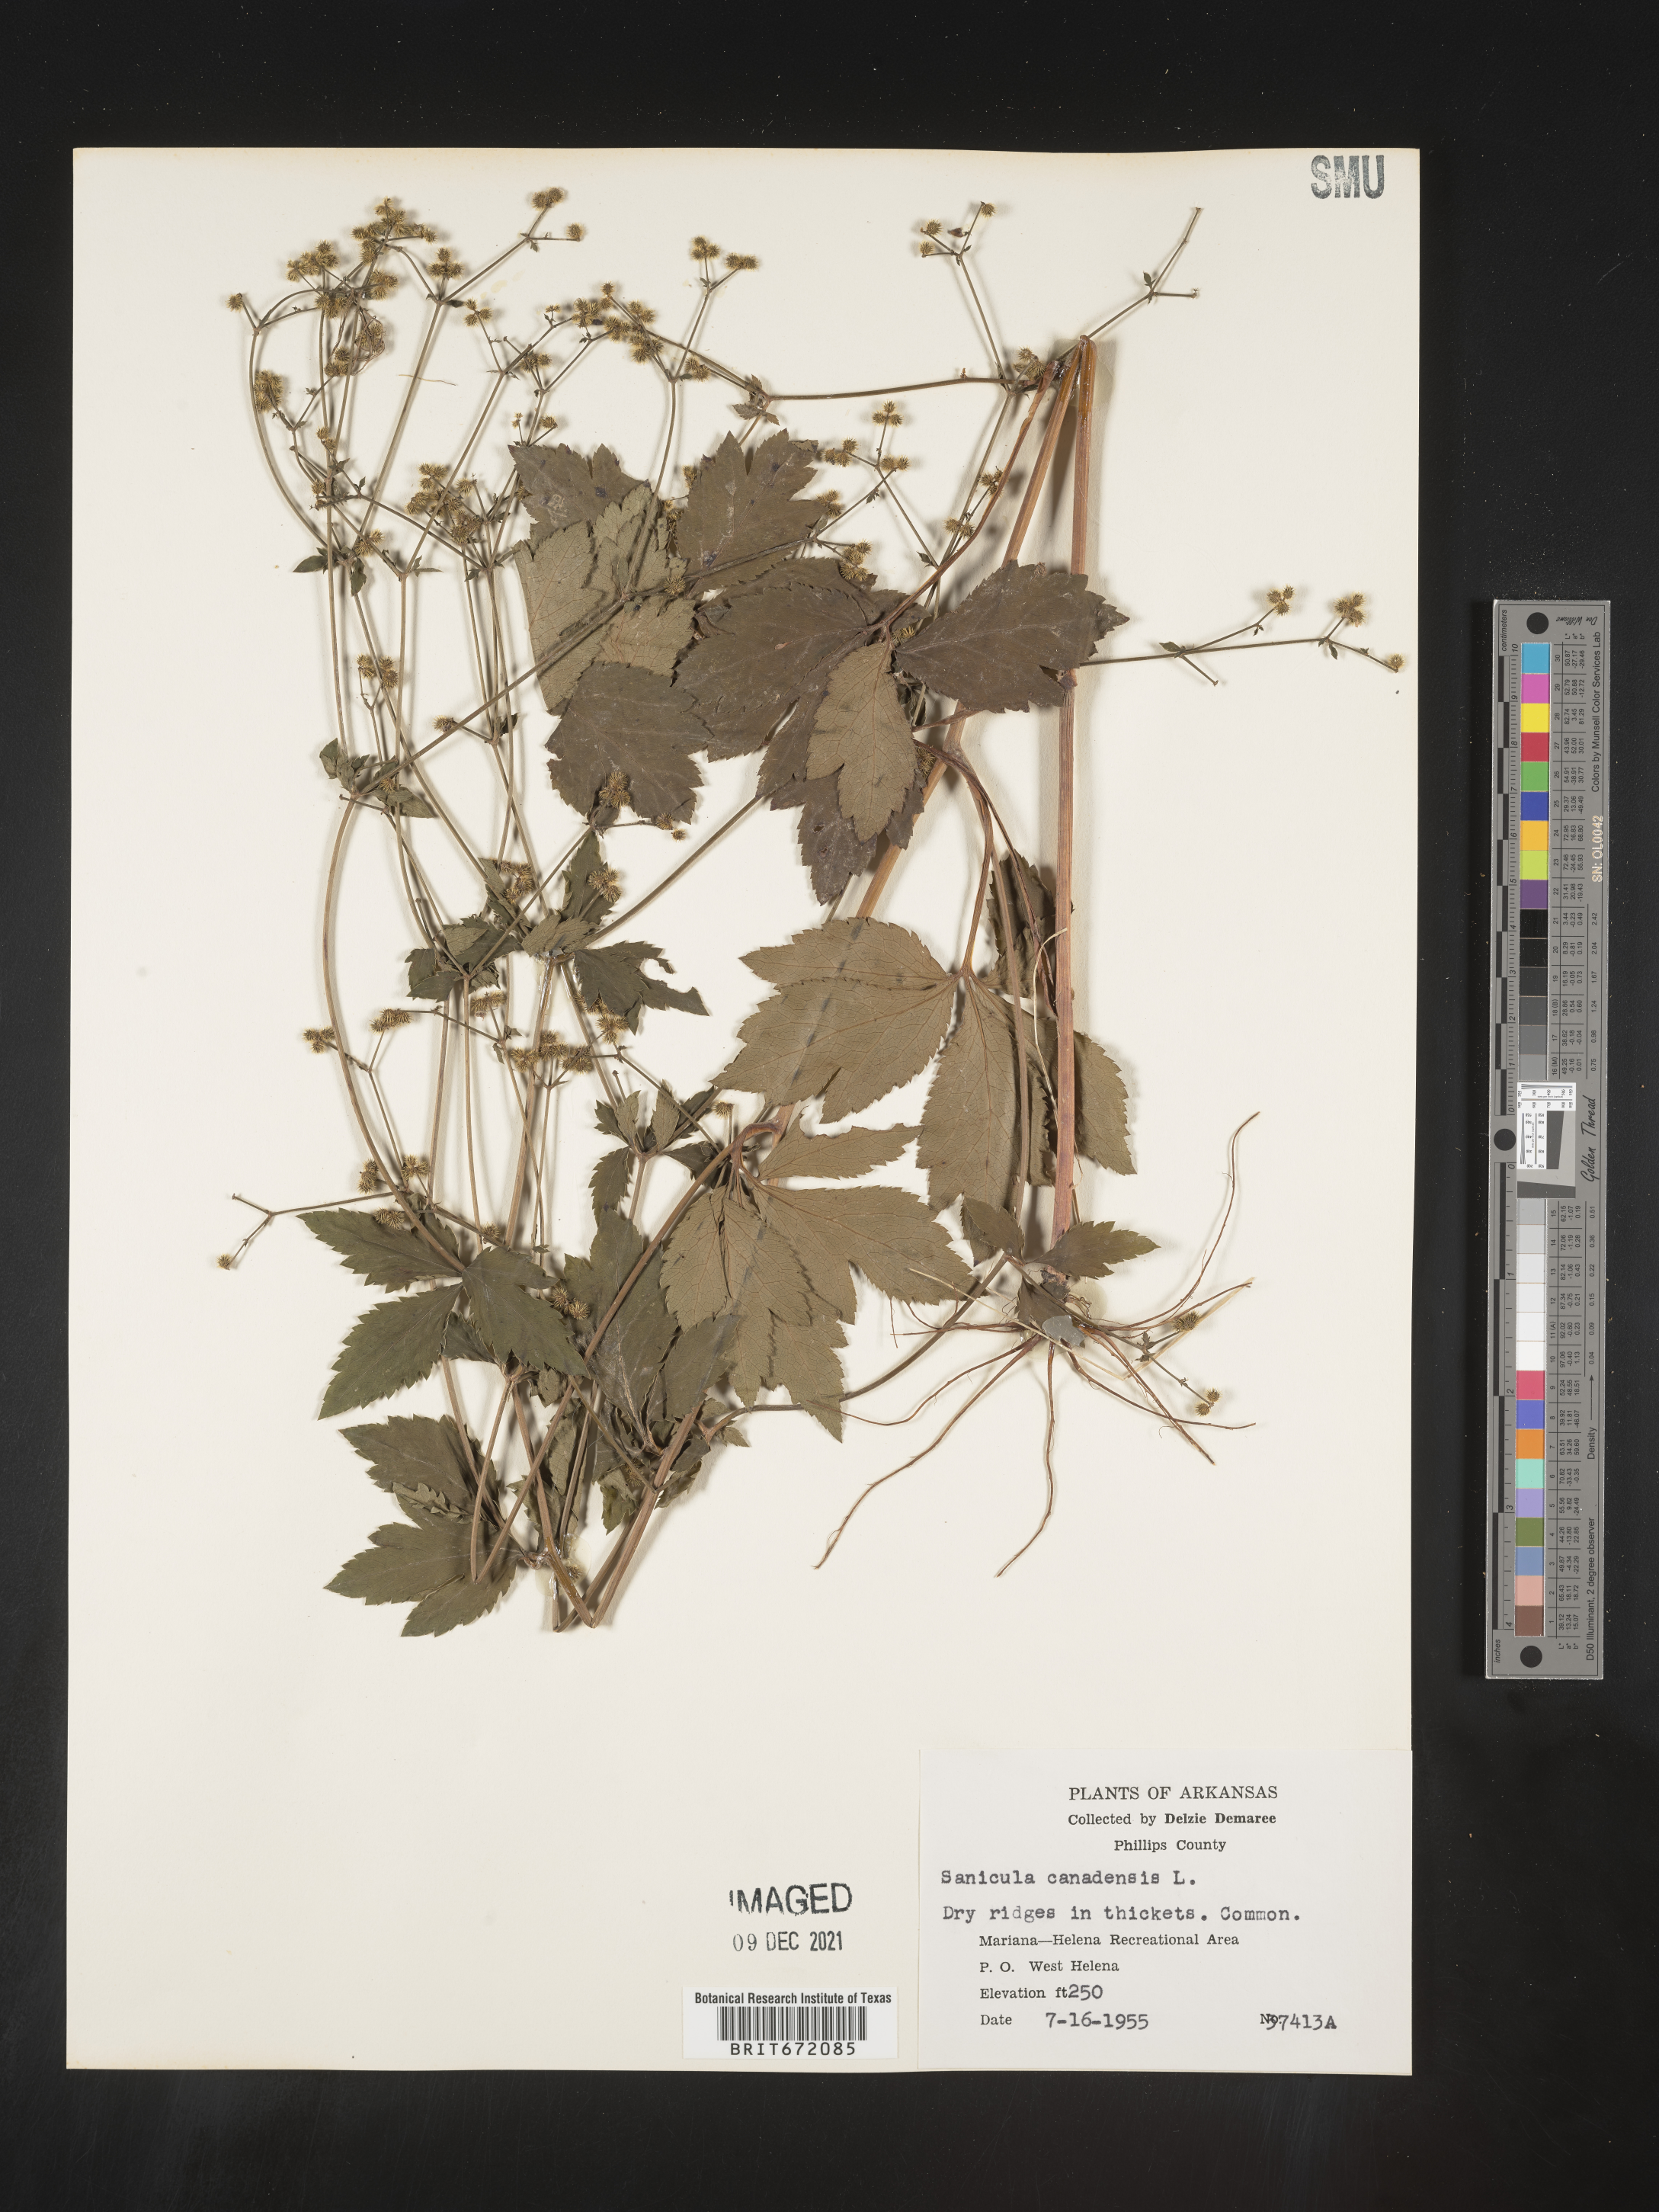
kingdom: Plantae
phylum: Tracheophyta
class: Magnoliopsida
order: Apiales
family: Apiaceae
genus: Sanicula
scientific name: Sanicula canadensis
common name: Canada sanicle
